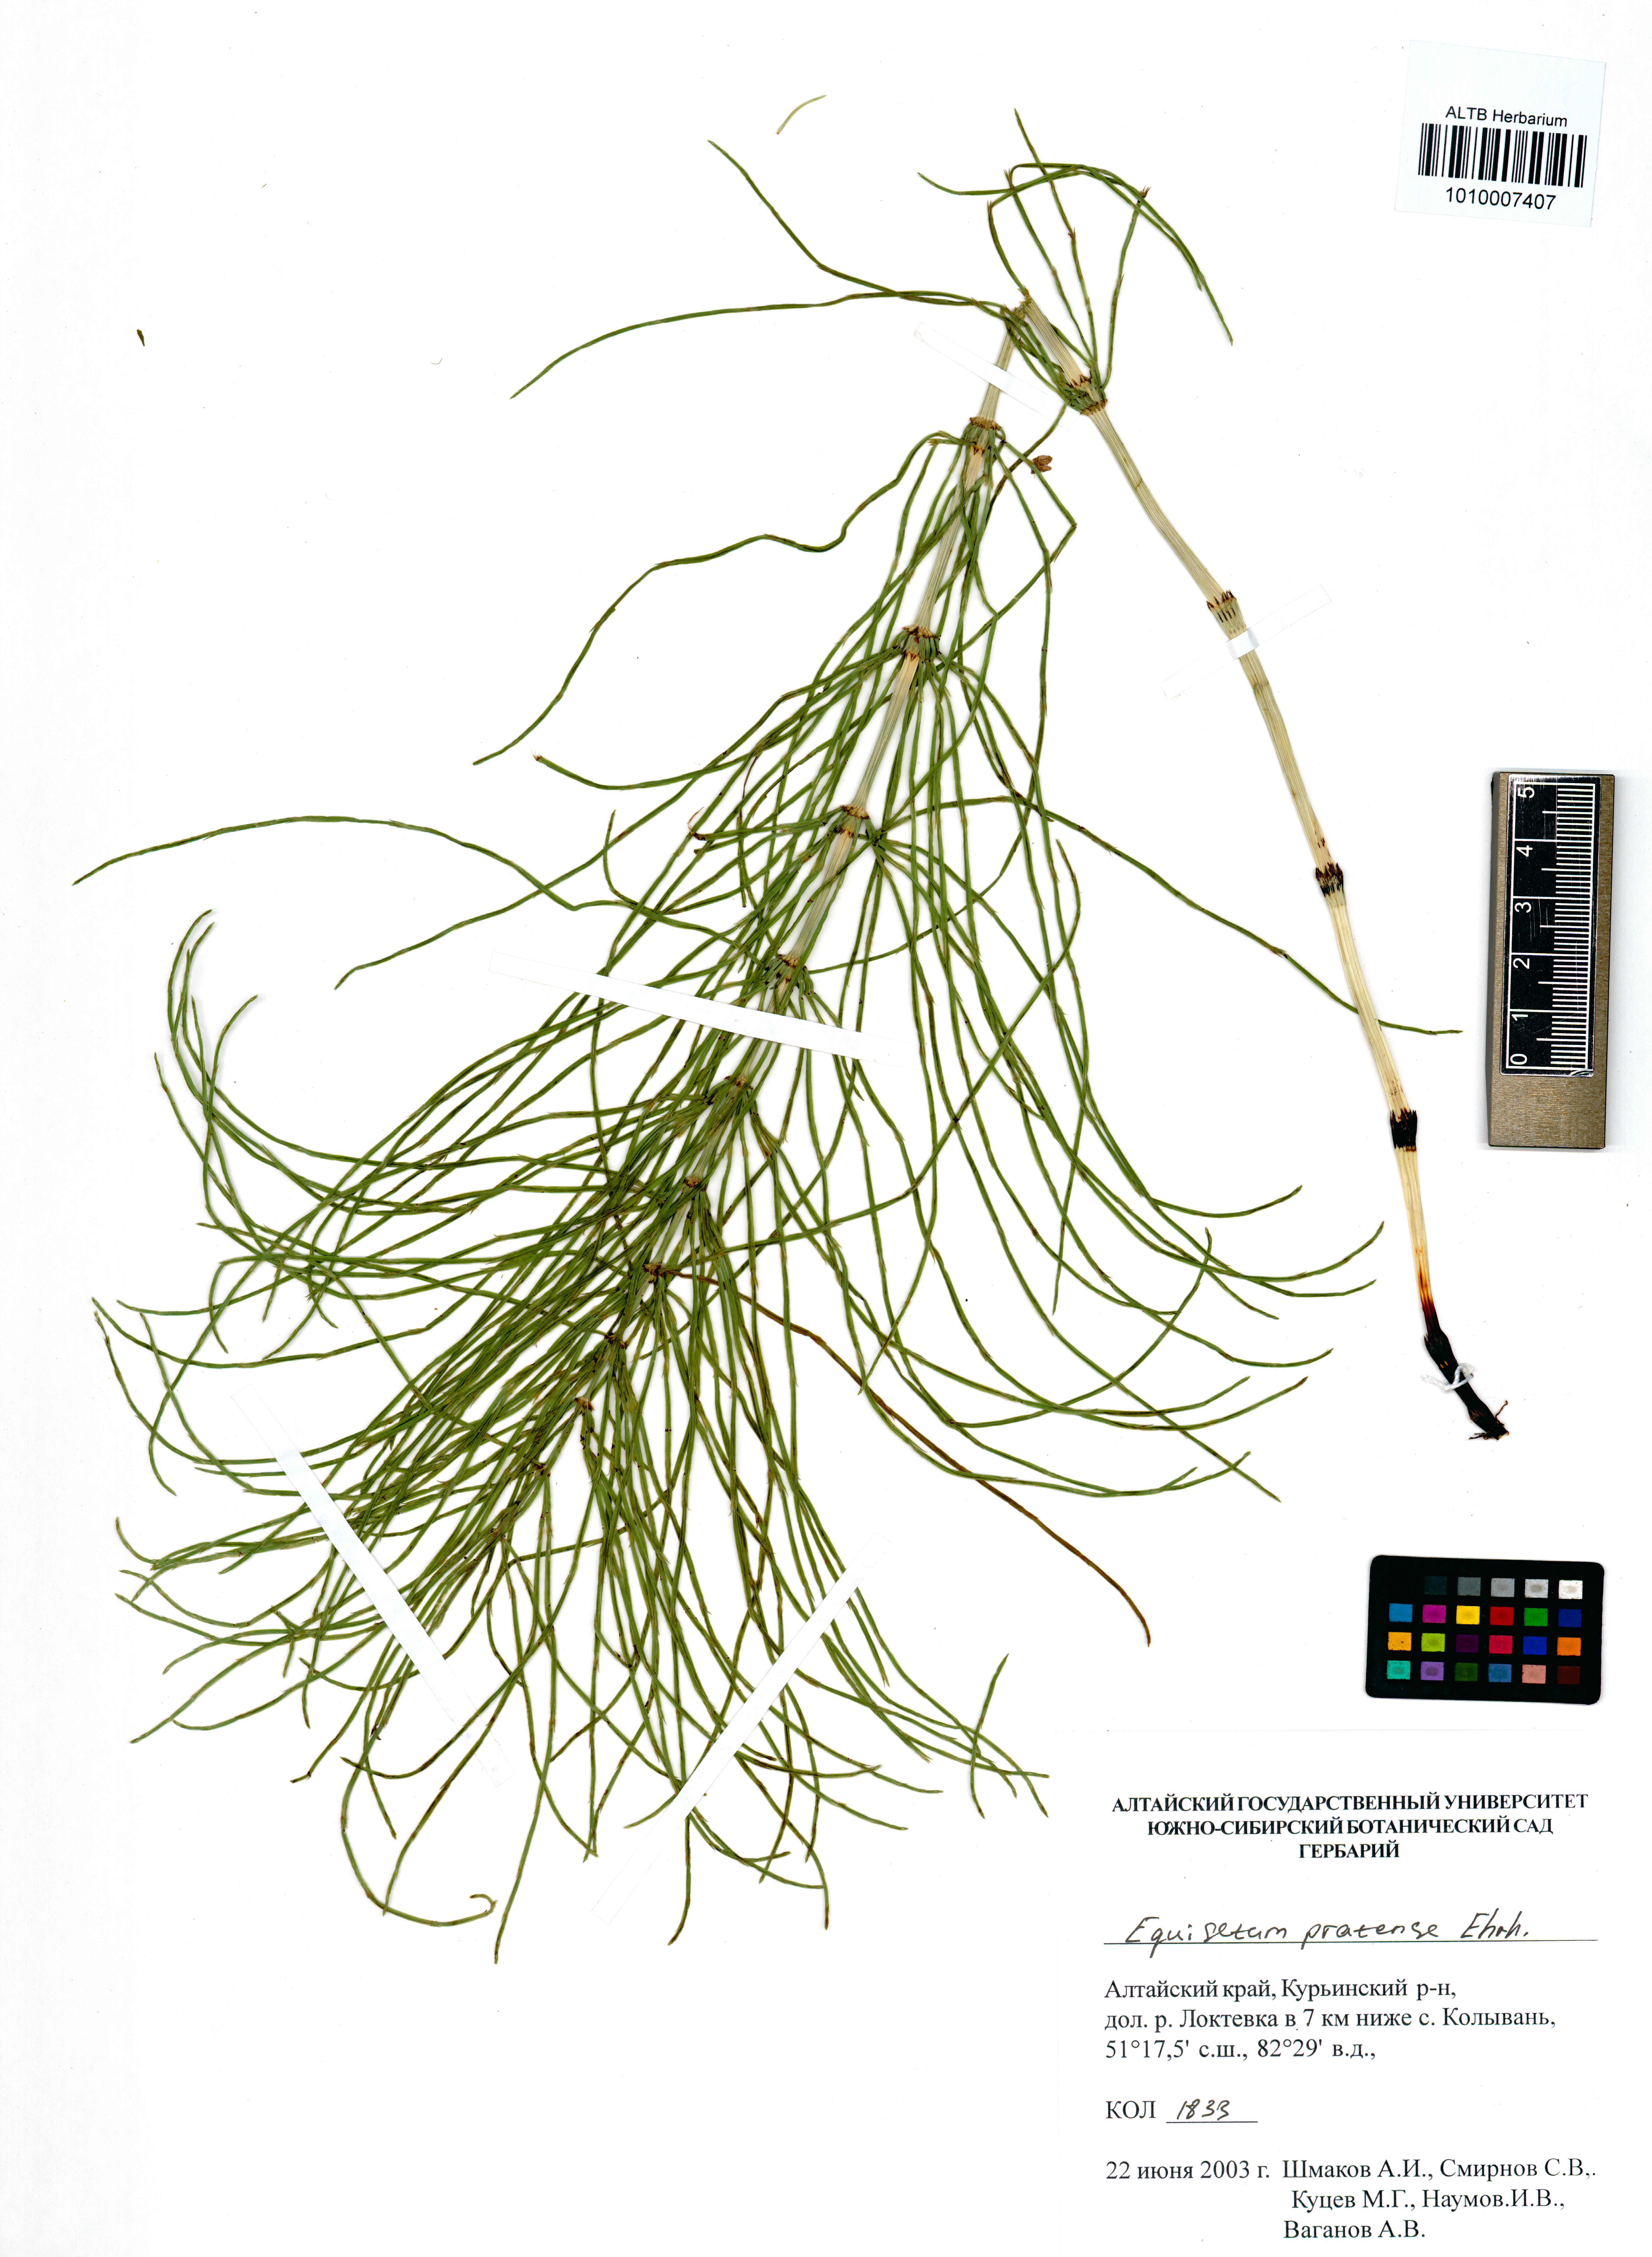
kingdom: Plantae
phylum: Tracheophyta
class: Polypodiopsida
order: Equisetales
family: Equisetaceae
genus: Equisetum
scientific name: Equisetum pratense
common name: Meadow horsetail
